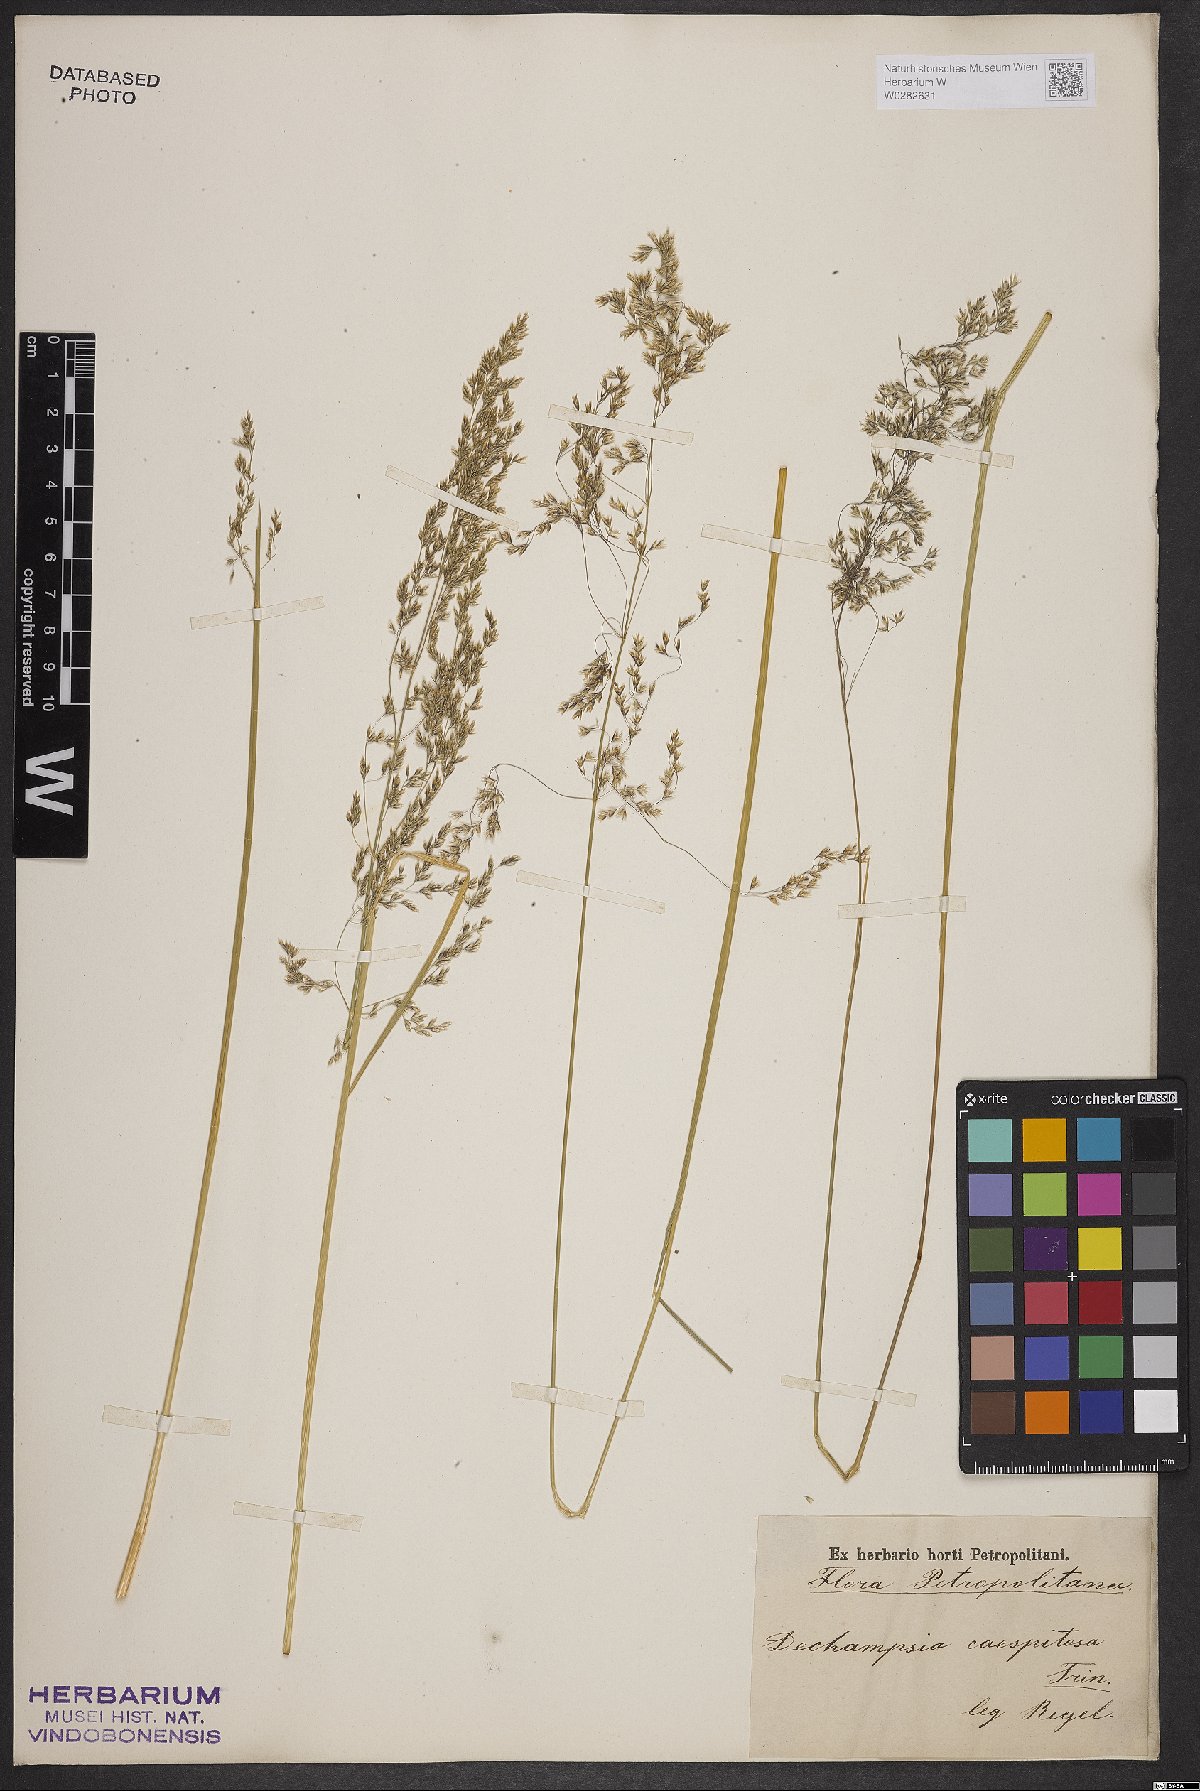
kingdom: Plantae
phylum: Tracheophyta
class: Liliopsida
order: Poales
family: Poaceae
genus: Deschampsia
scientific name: Deschampsia cespitosa
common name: Tufted hair-grass
